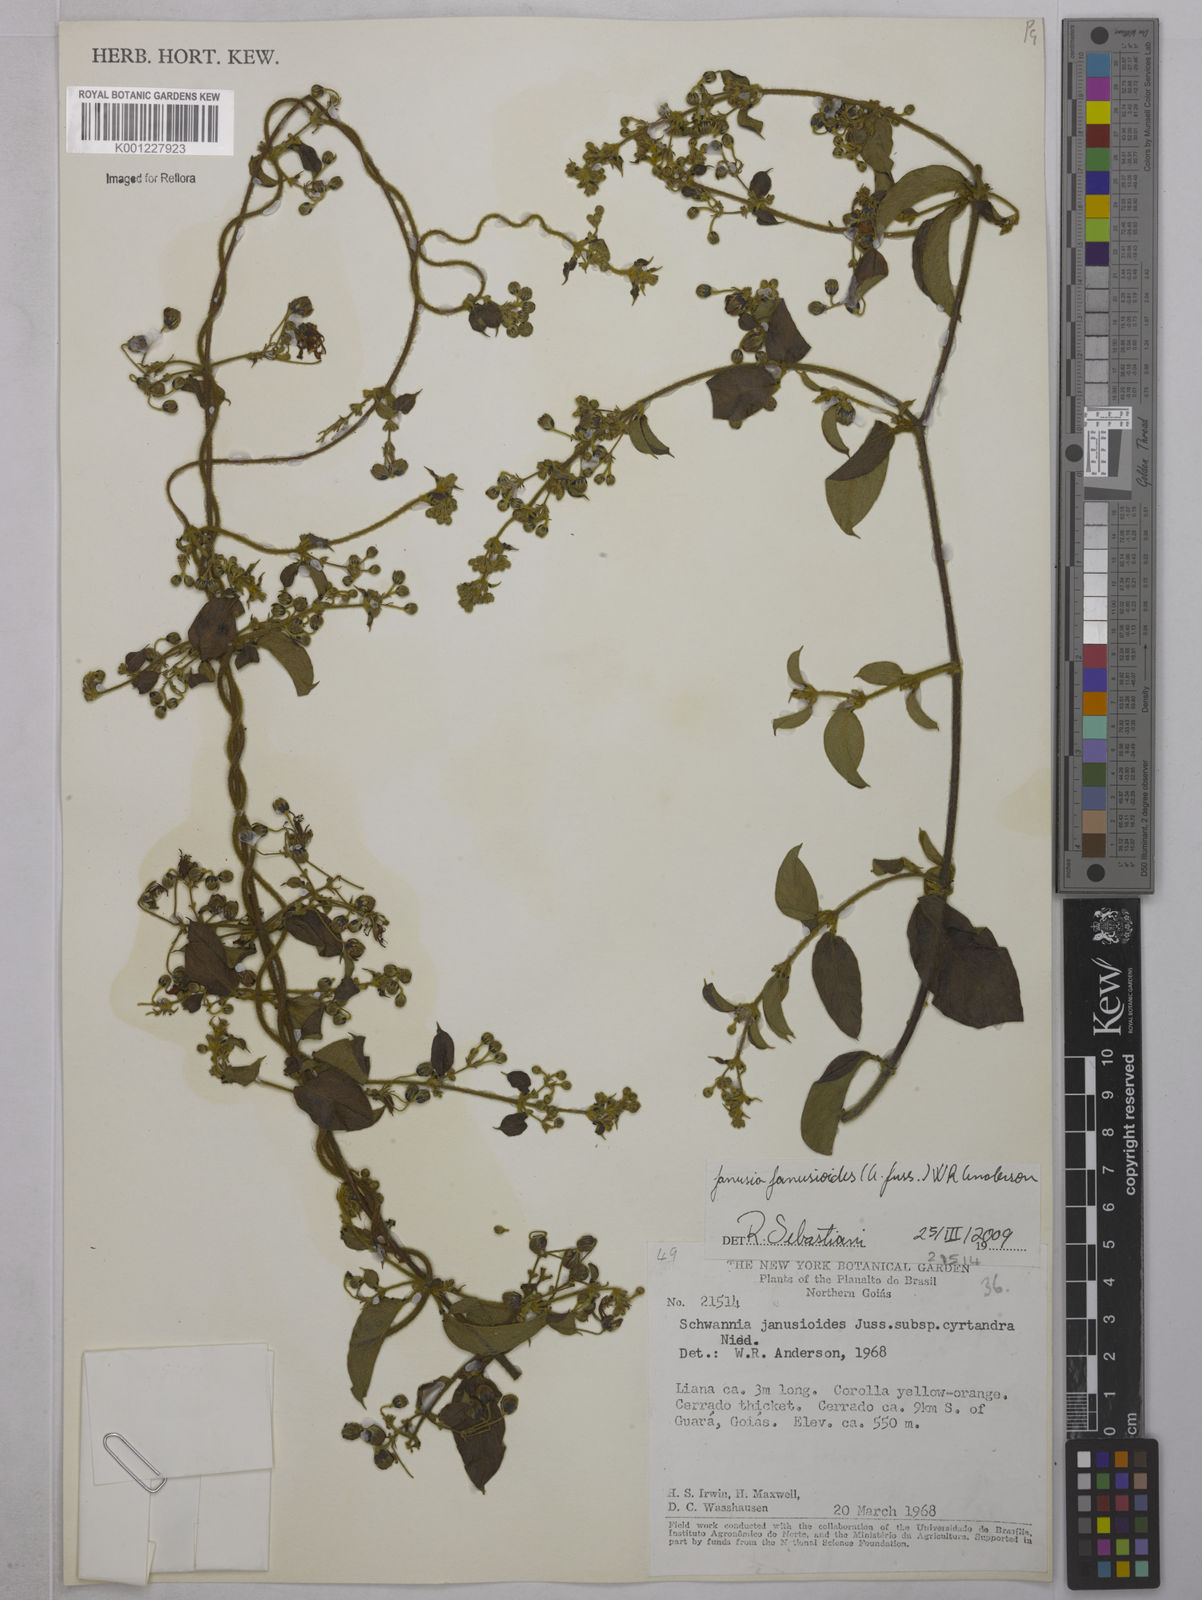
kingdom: Plantae
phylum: Tracheophyta
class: Magnoliopsida
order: Malpighiales
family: Malpighiaceae
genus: Janusia
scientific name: Janusia janusioides
